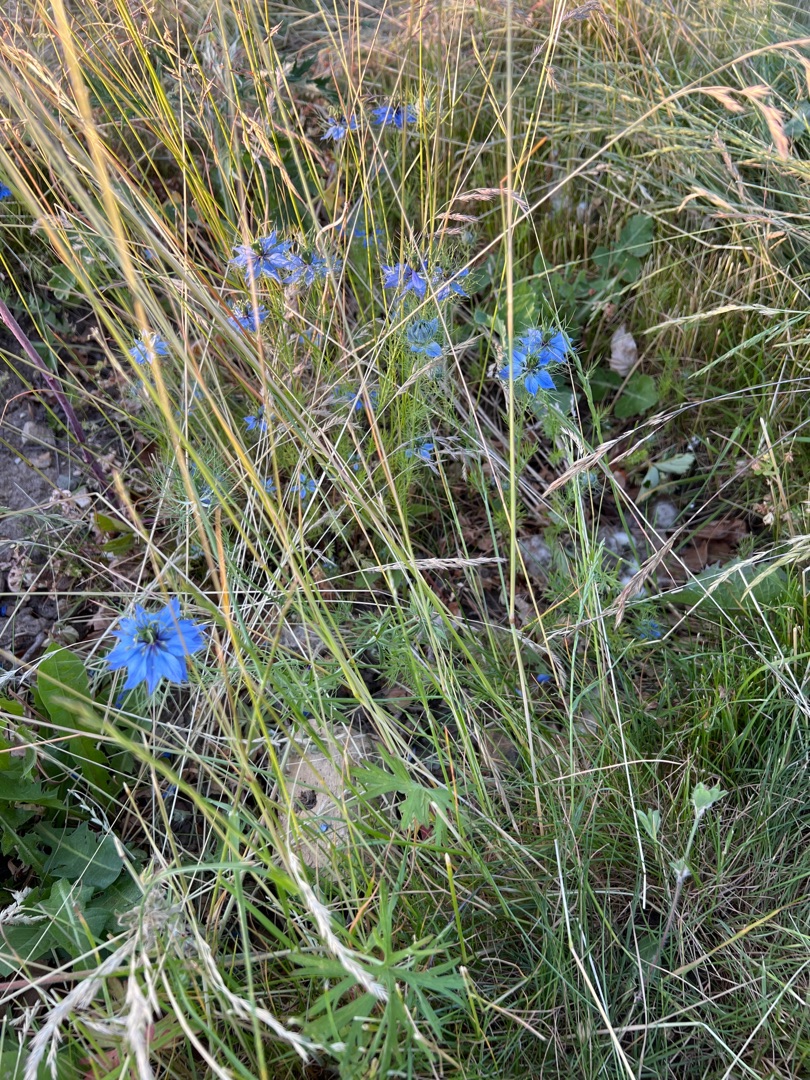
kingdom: Plantae
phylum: Tracheophyta
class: Magnoliopsida
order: Ranunculales
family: Ranunculaceae
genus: Nigella
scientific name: Nigella damascena
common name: Jomfru i det grønne
